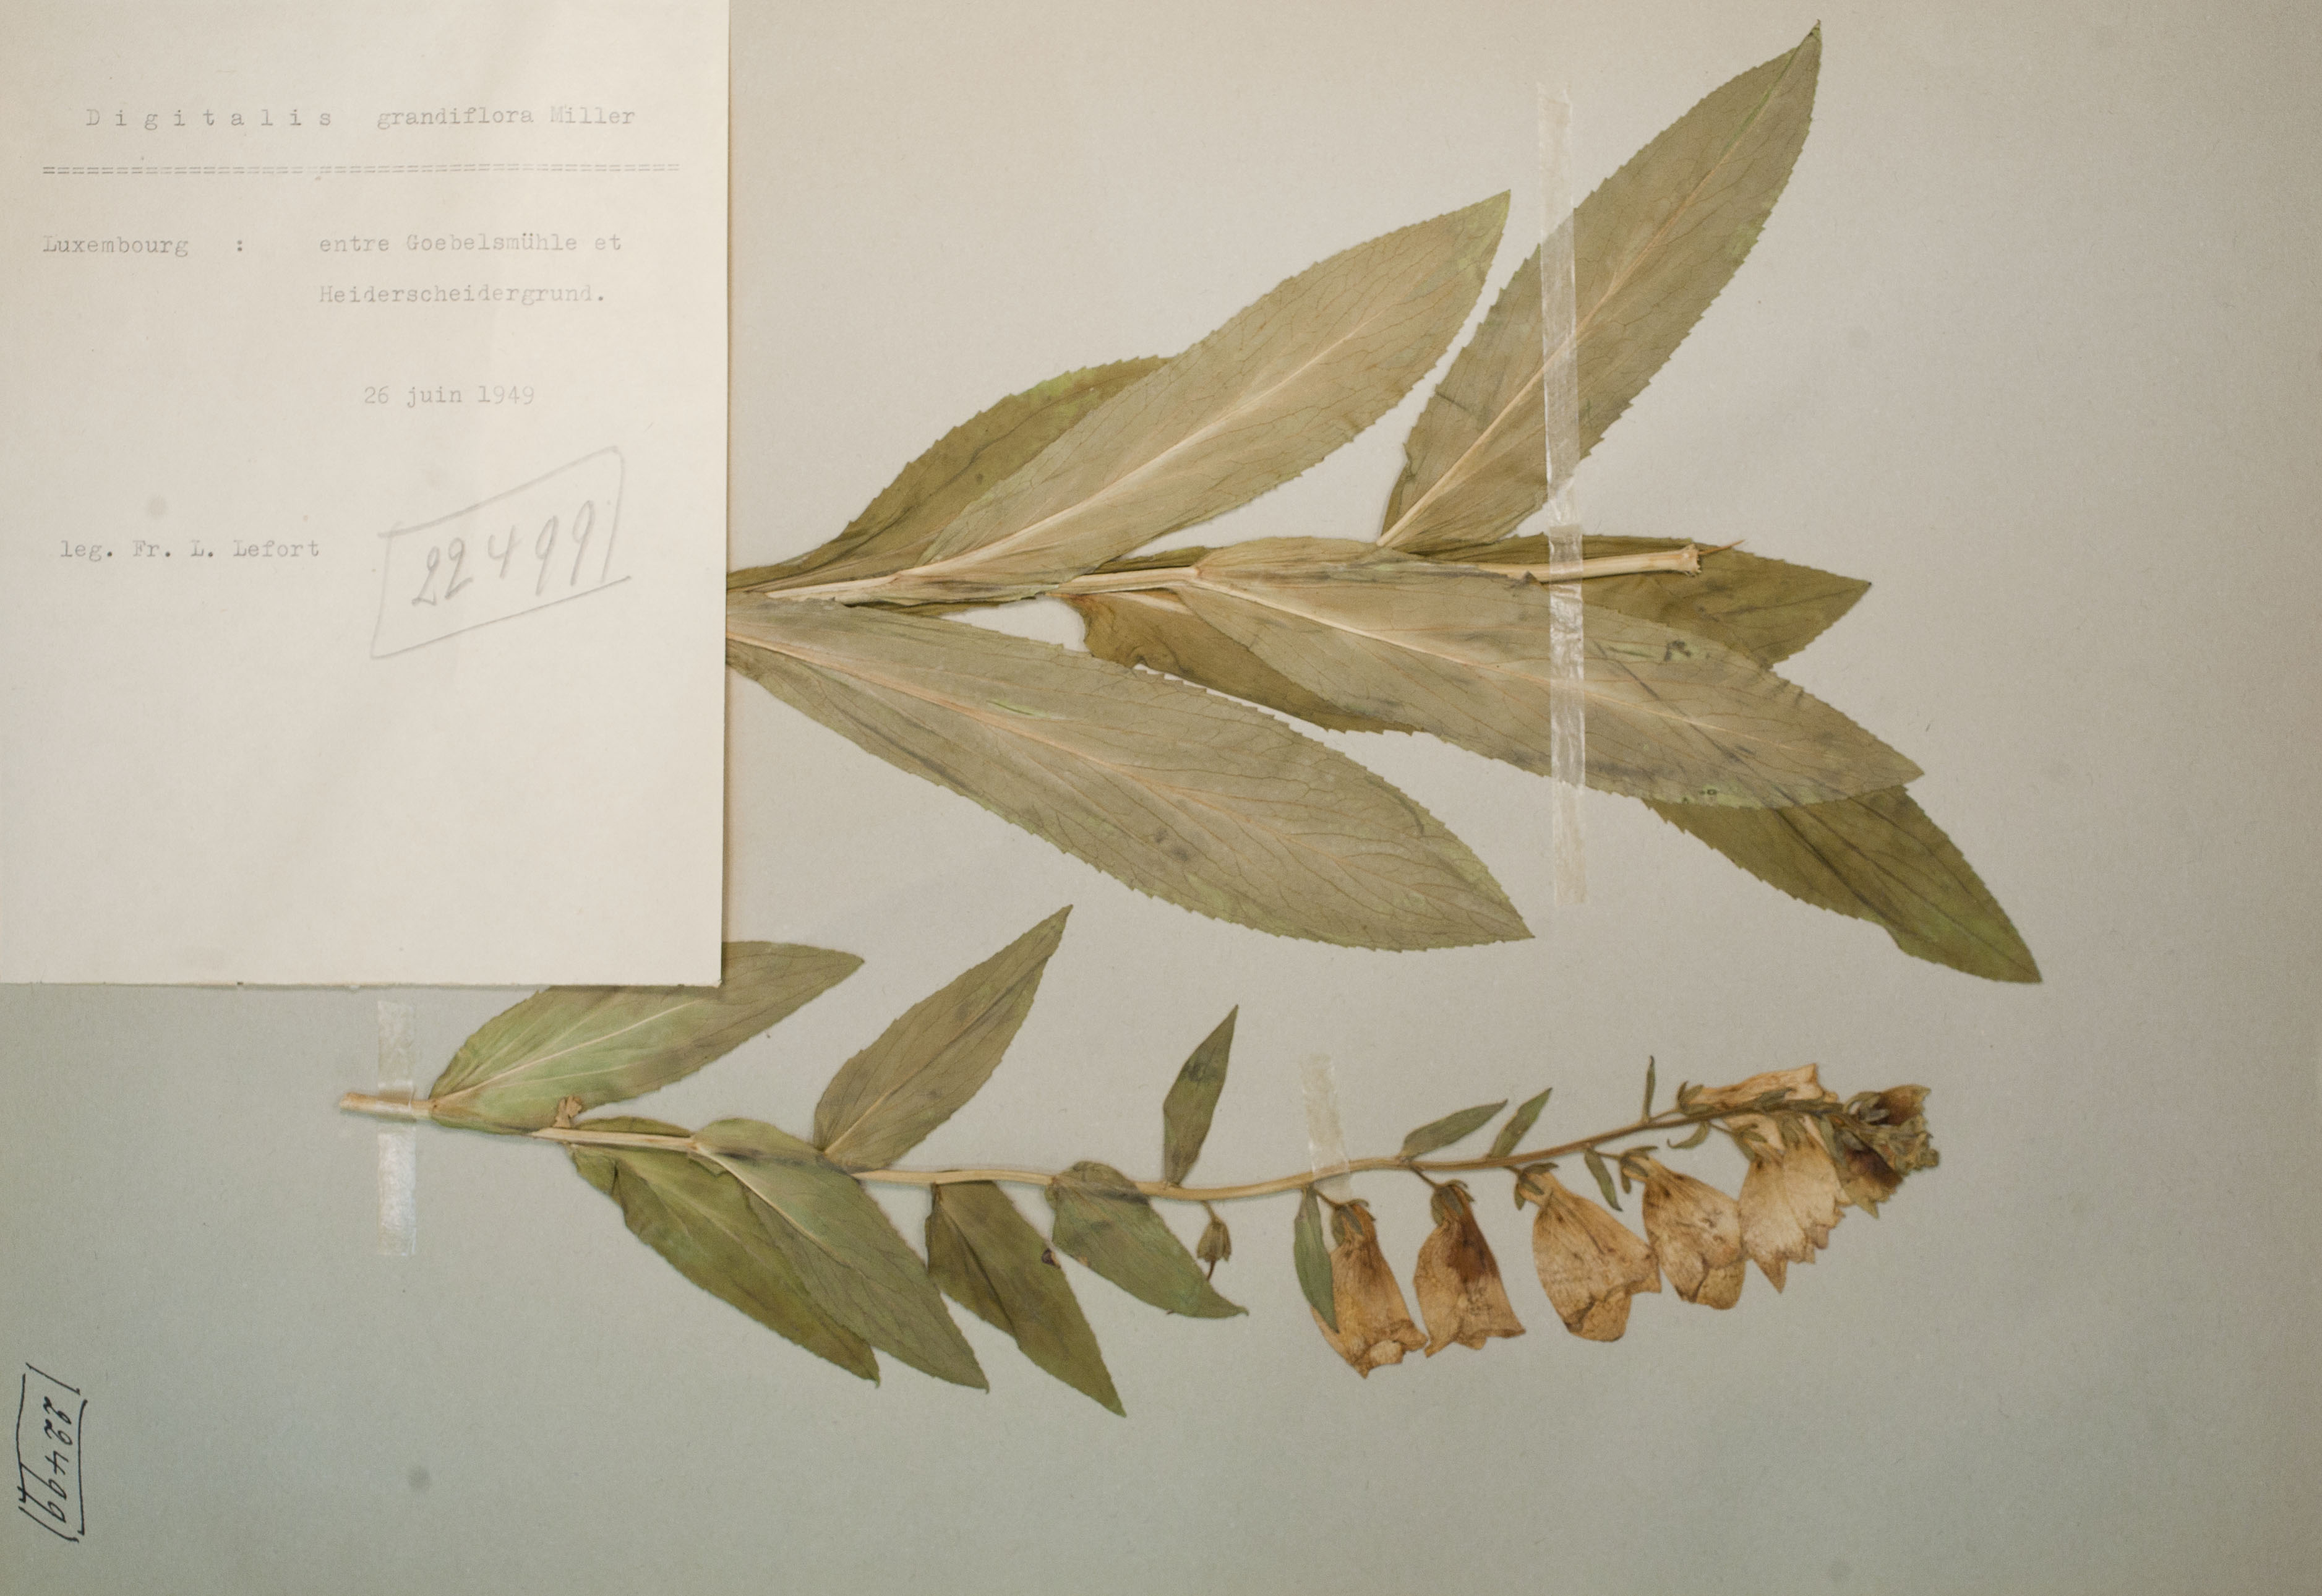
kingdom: Plantae
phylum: Tracheophyta
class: Magnoliopsida
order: Lamiales
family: Plantaginaceae
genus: Digitalis
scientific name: Digitalis grandiflora
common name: Yellow foxglove
